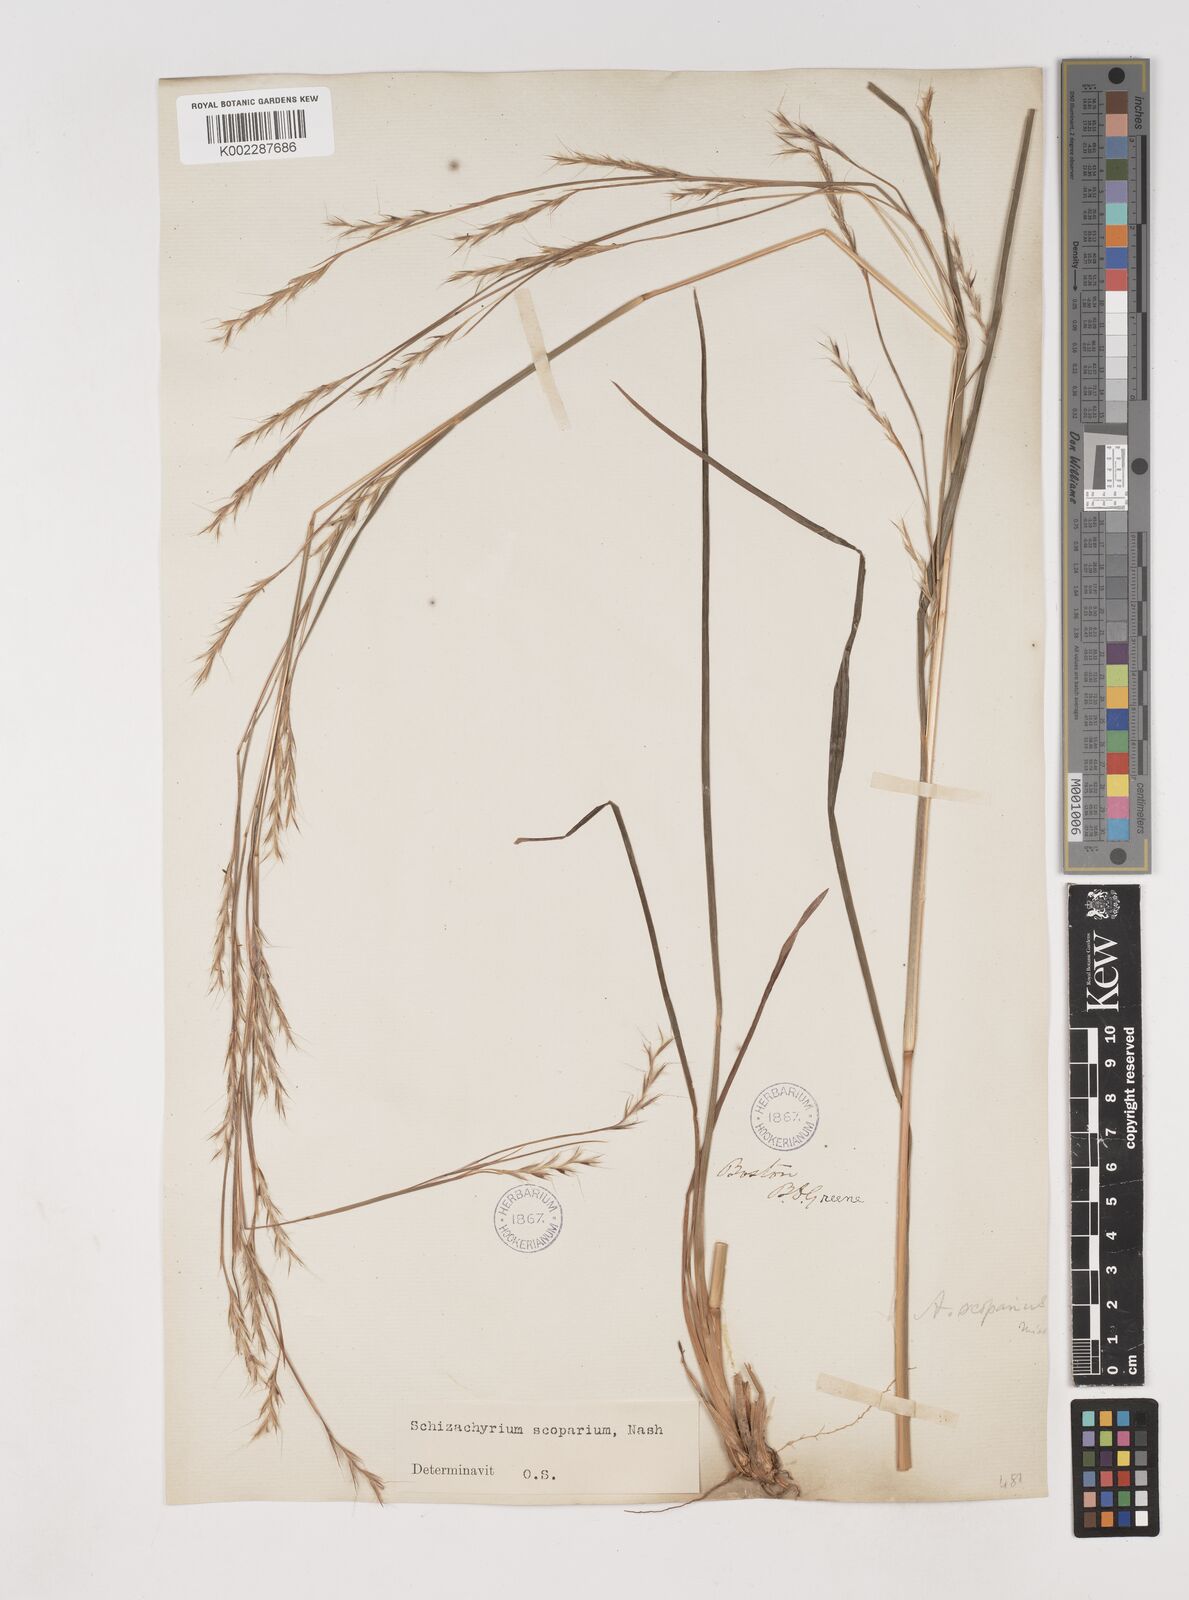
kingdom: Plantae
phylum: Tracheophyta
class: Liliopsida
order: Poales
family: Poaceae
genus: Schizachyrium
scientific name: Schizachyrium scoparium
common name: Little bluestem
